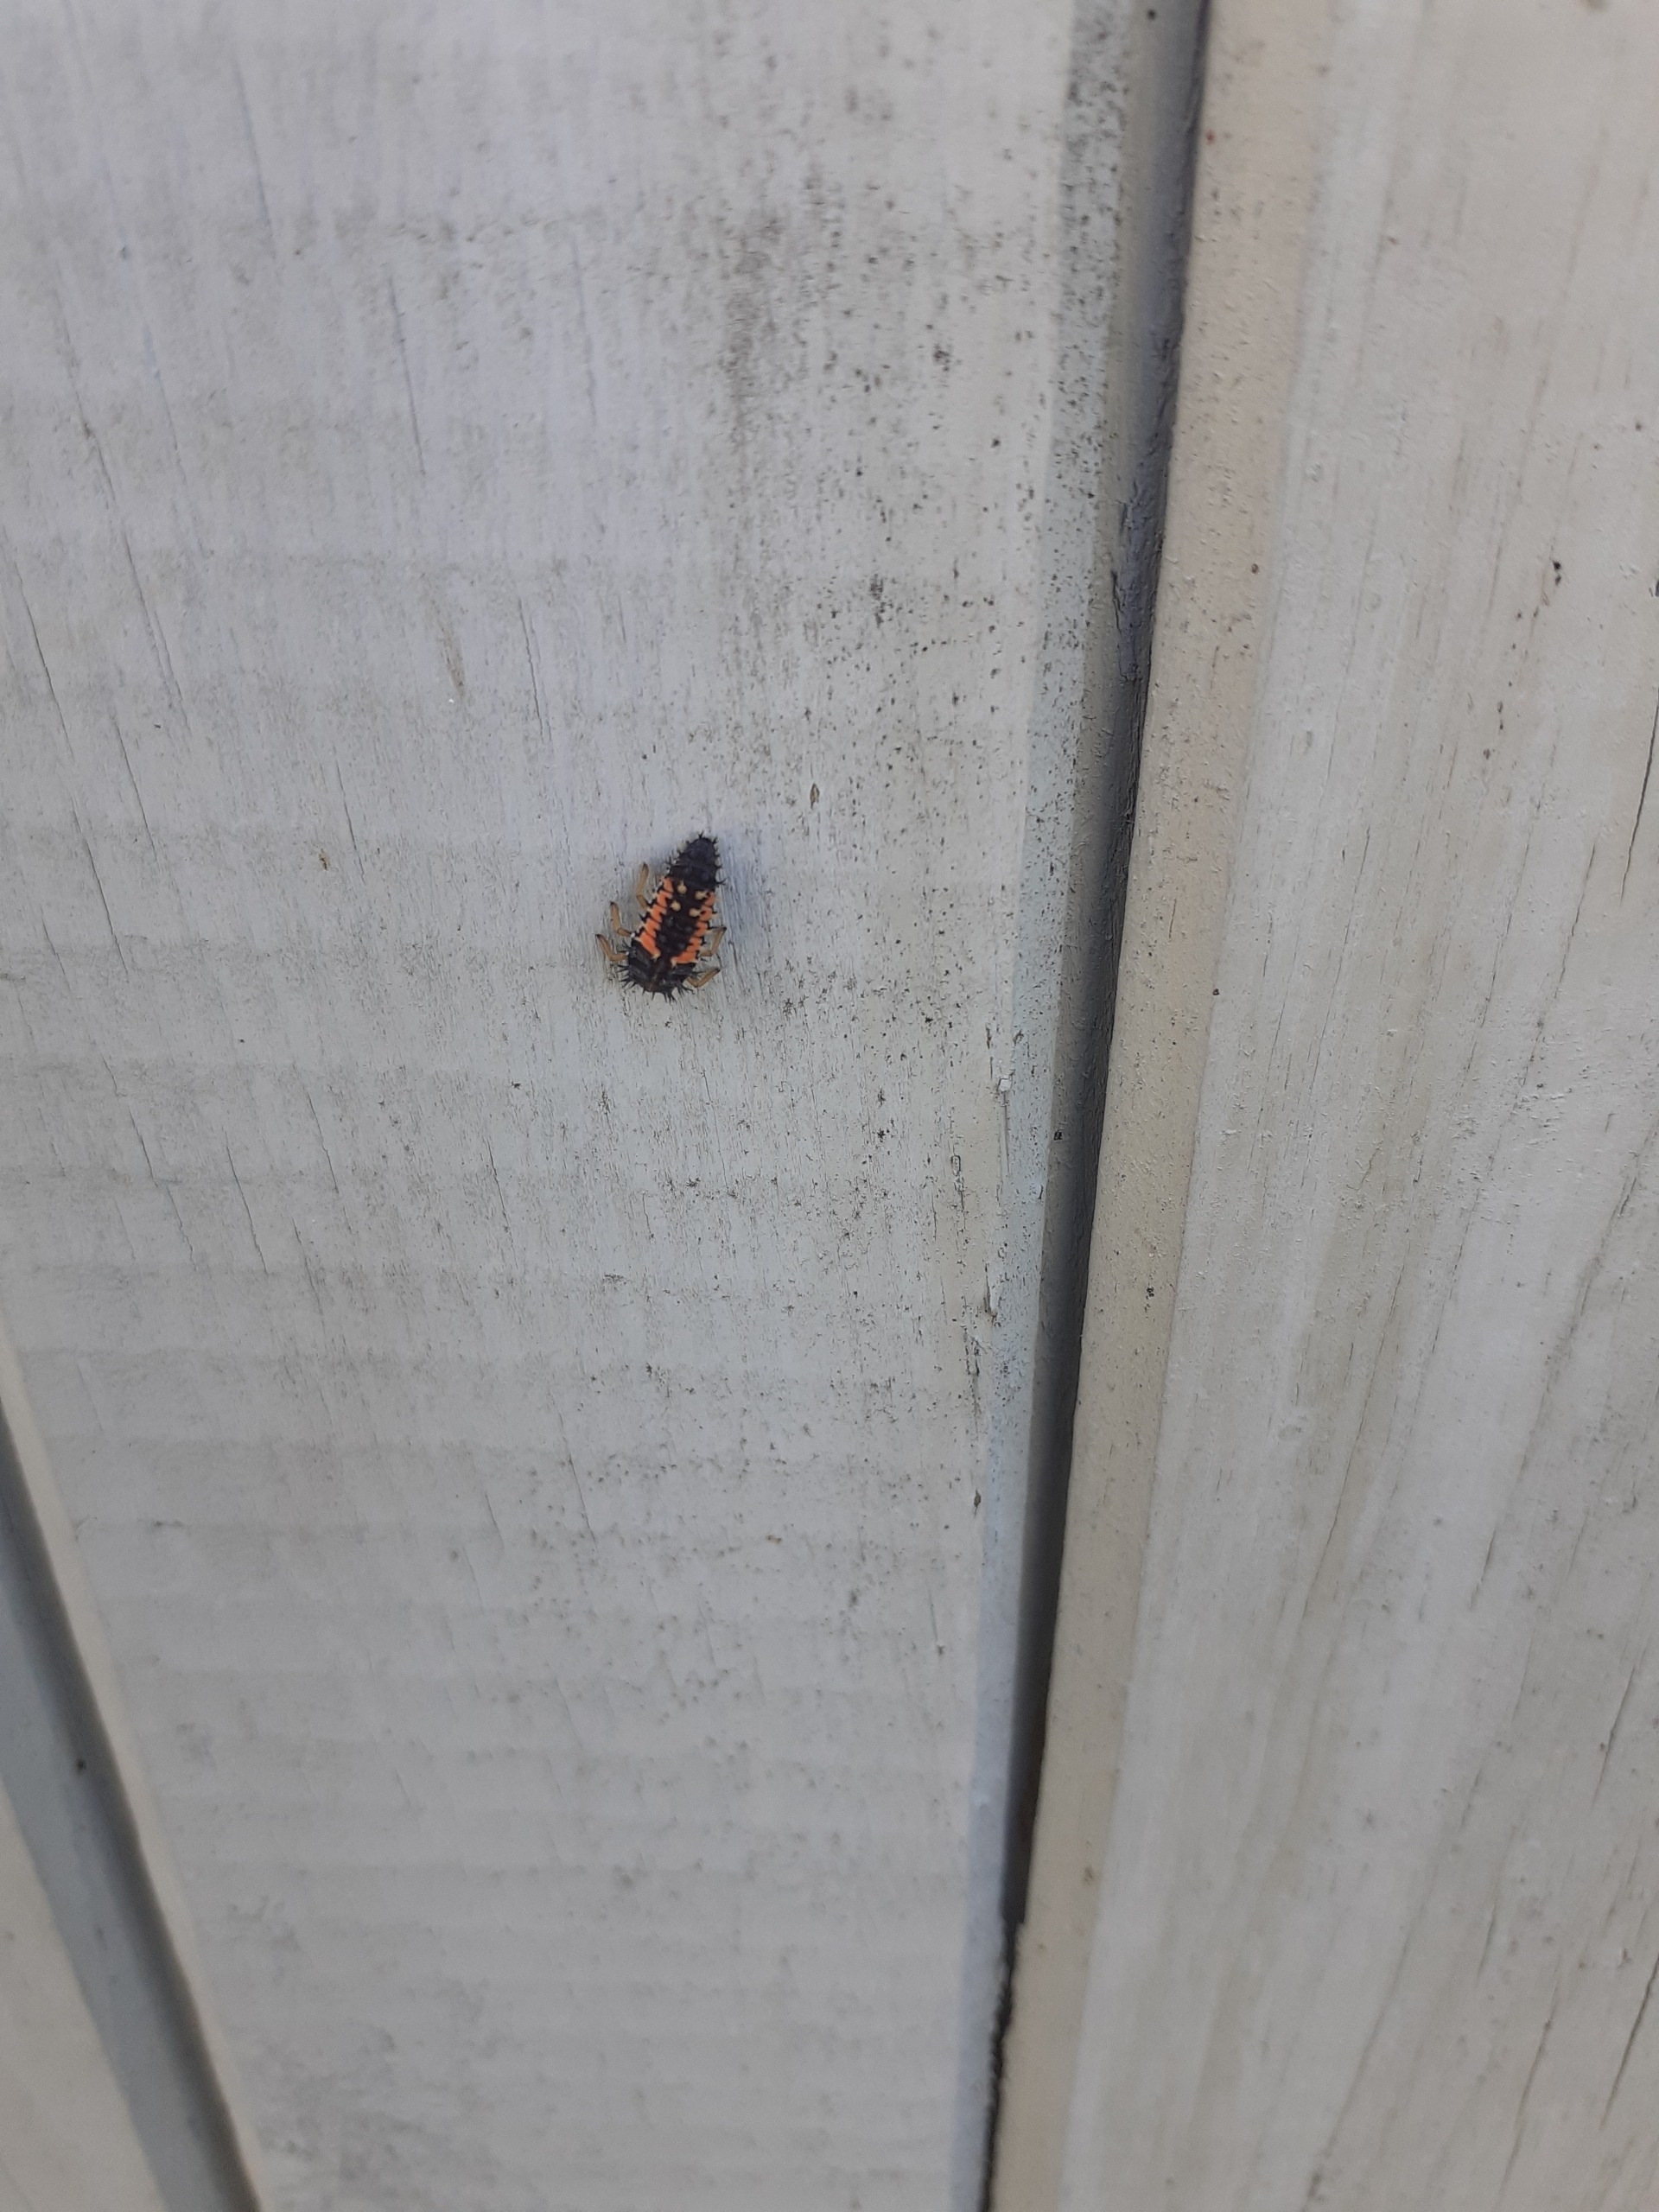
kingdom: Animalia
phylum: Arthropoda
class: Insecta
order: Coleoptera
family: Coccinellidae
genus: Harmonia
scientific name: Harmonia axyridis
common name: Harlekinmariehøne
